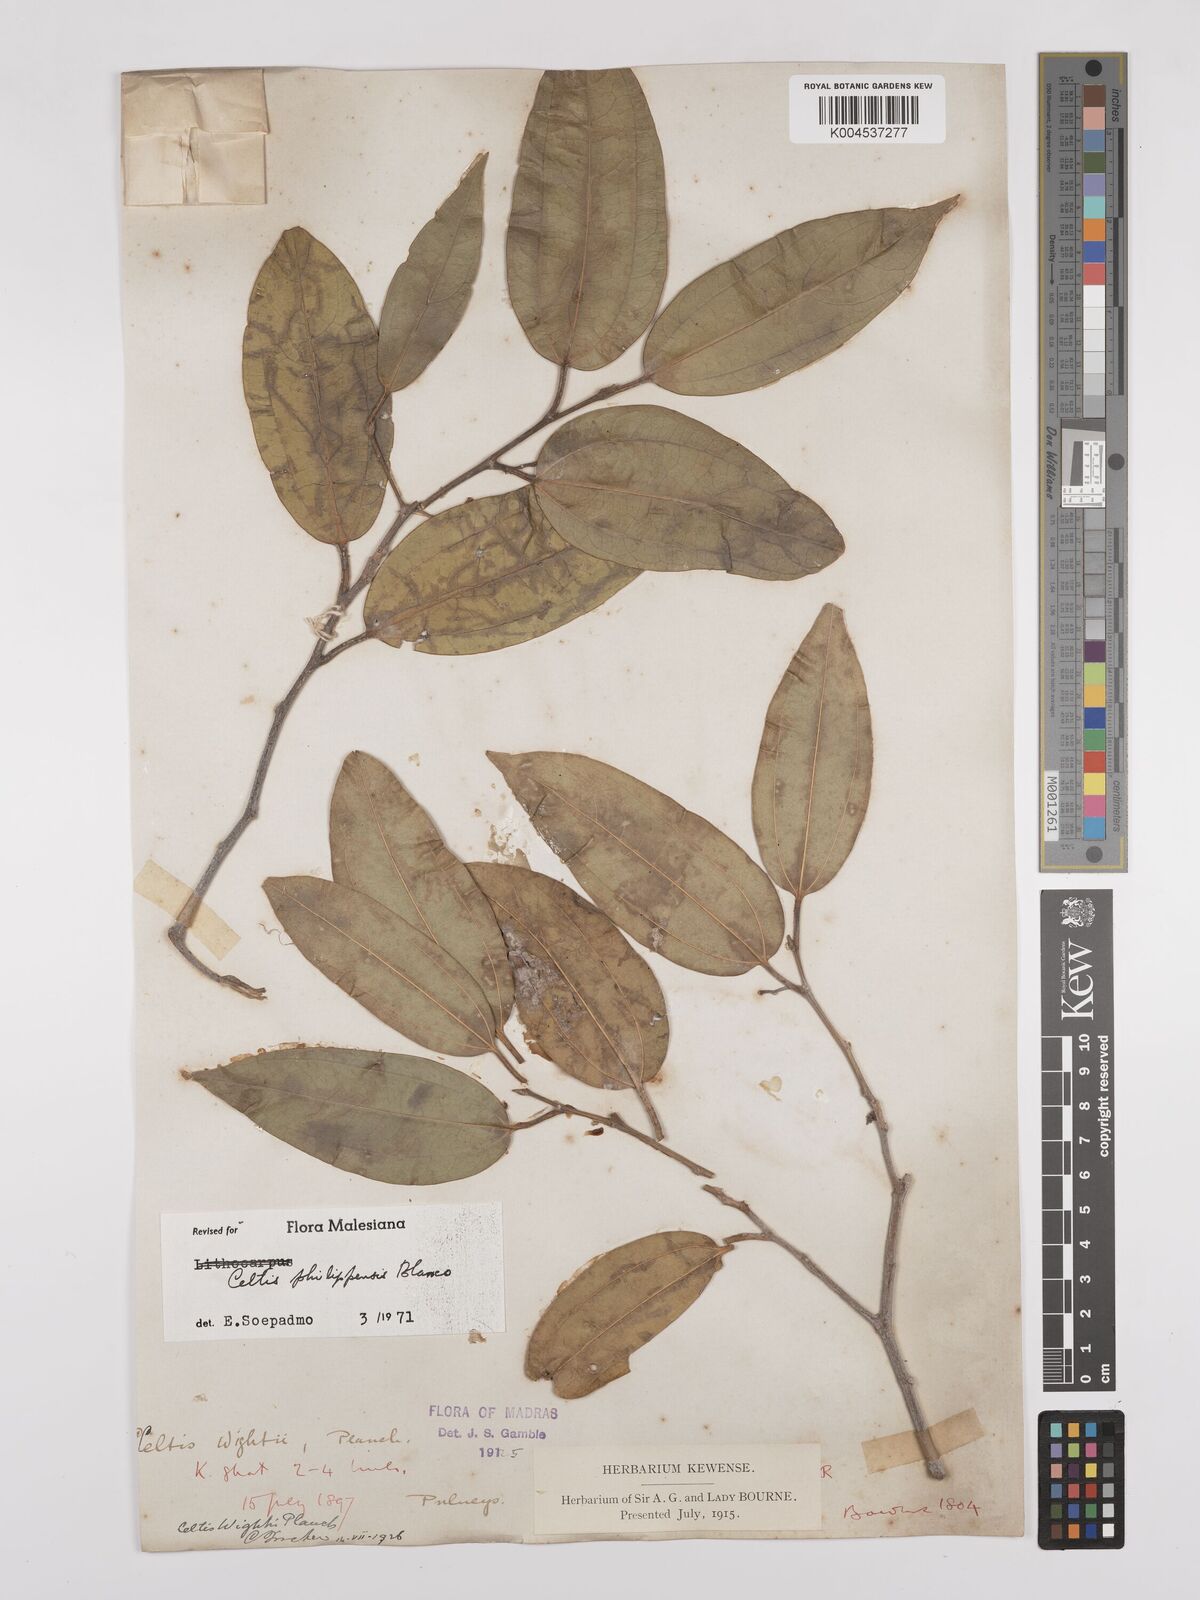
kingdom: Plantae
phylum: Tracheophyta
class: Magnoliopsida
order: Rosales
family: Cannabaceae
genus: Celtis
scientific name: Celtis philippensis
